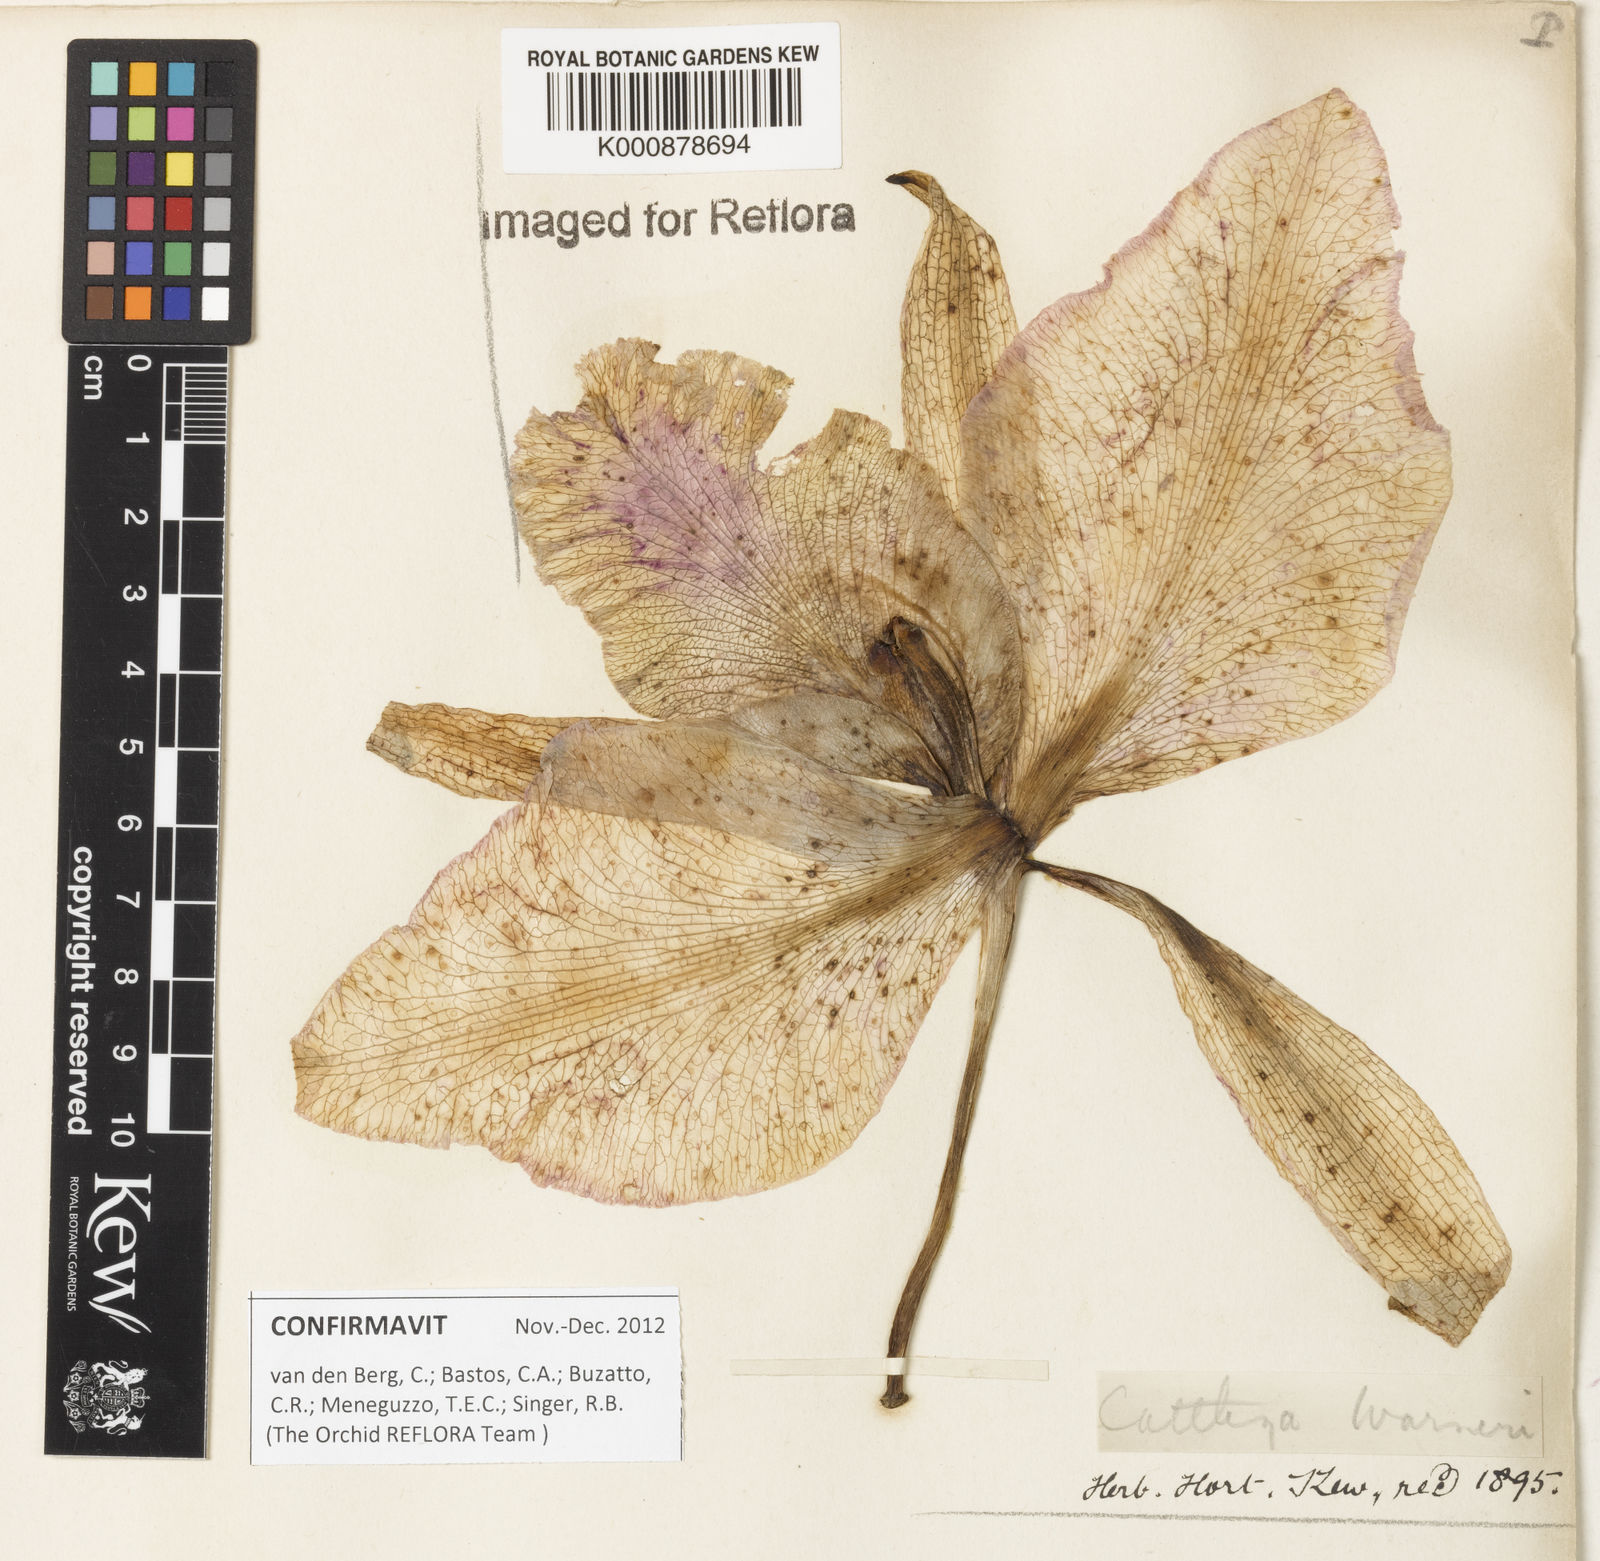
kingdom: Plantae
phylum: Tracheophyta
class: Liliopsida
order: Asparagales
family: Orchidaceae
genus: Cattleya
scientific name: Cattleya
